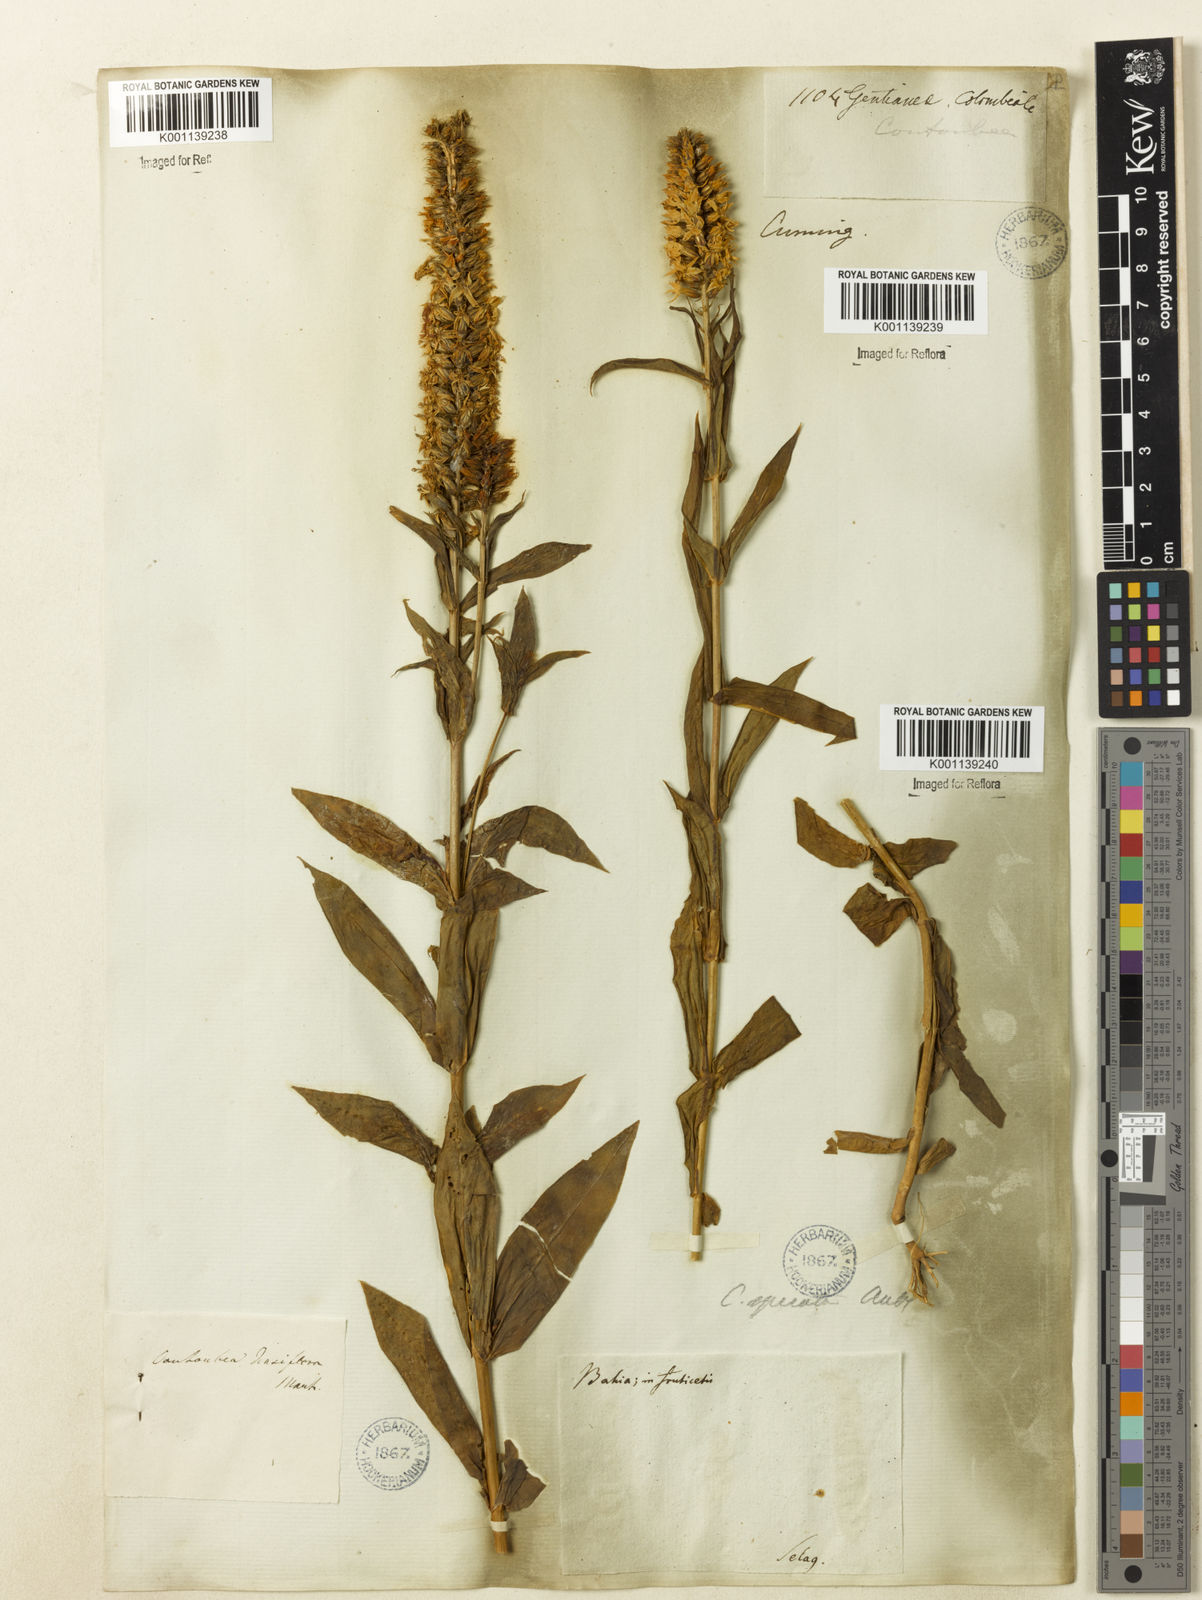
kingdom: Plantae
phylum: Tracheophyta
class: Magnoliopsida
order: Gentianales
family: Gentianaceae
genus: Coutoubea
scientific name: Coutoubea spicata
